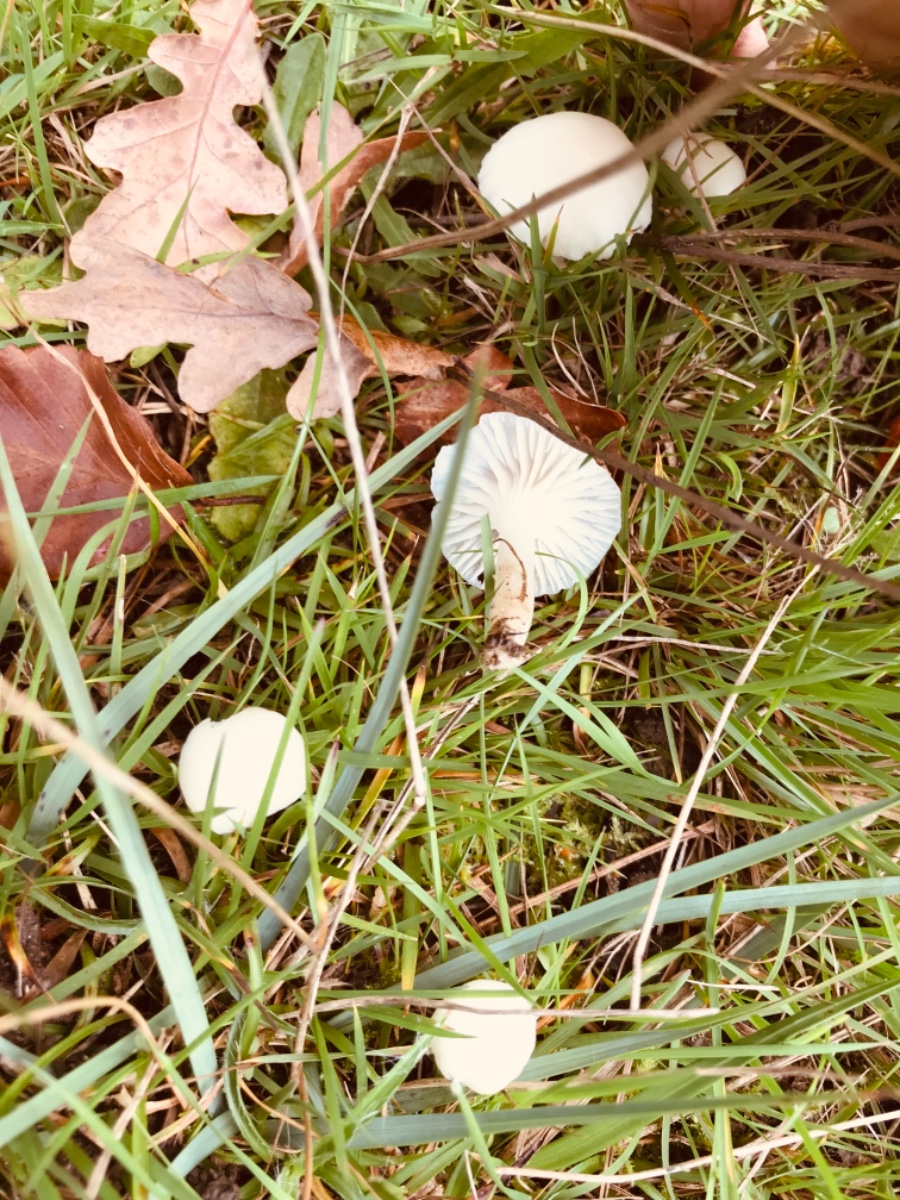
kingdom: Fungi
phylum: Basidiomycota
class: Agaricomycetes
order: Agaricales
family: Hygrophoraceae
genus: Cuphophyllus
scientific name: Cuphophyllus
